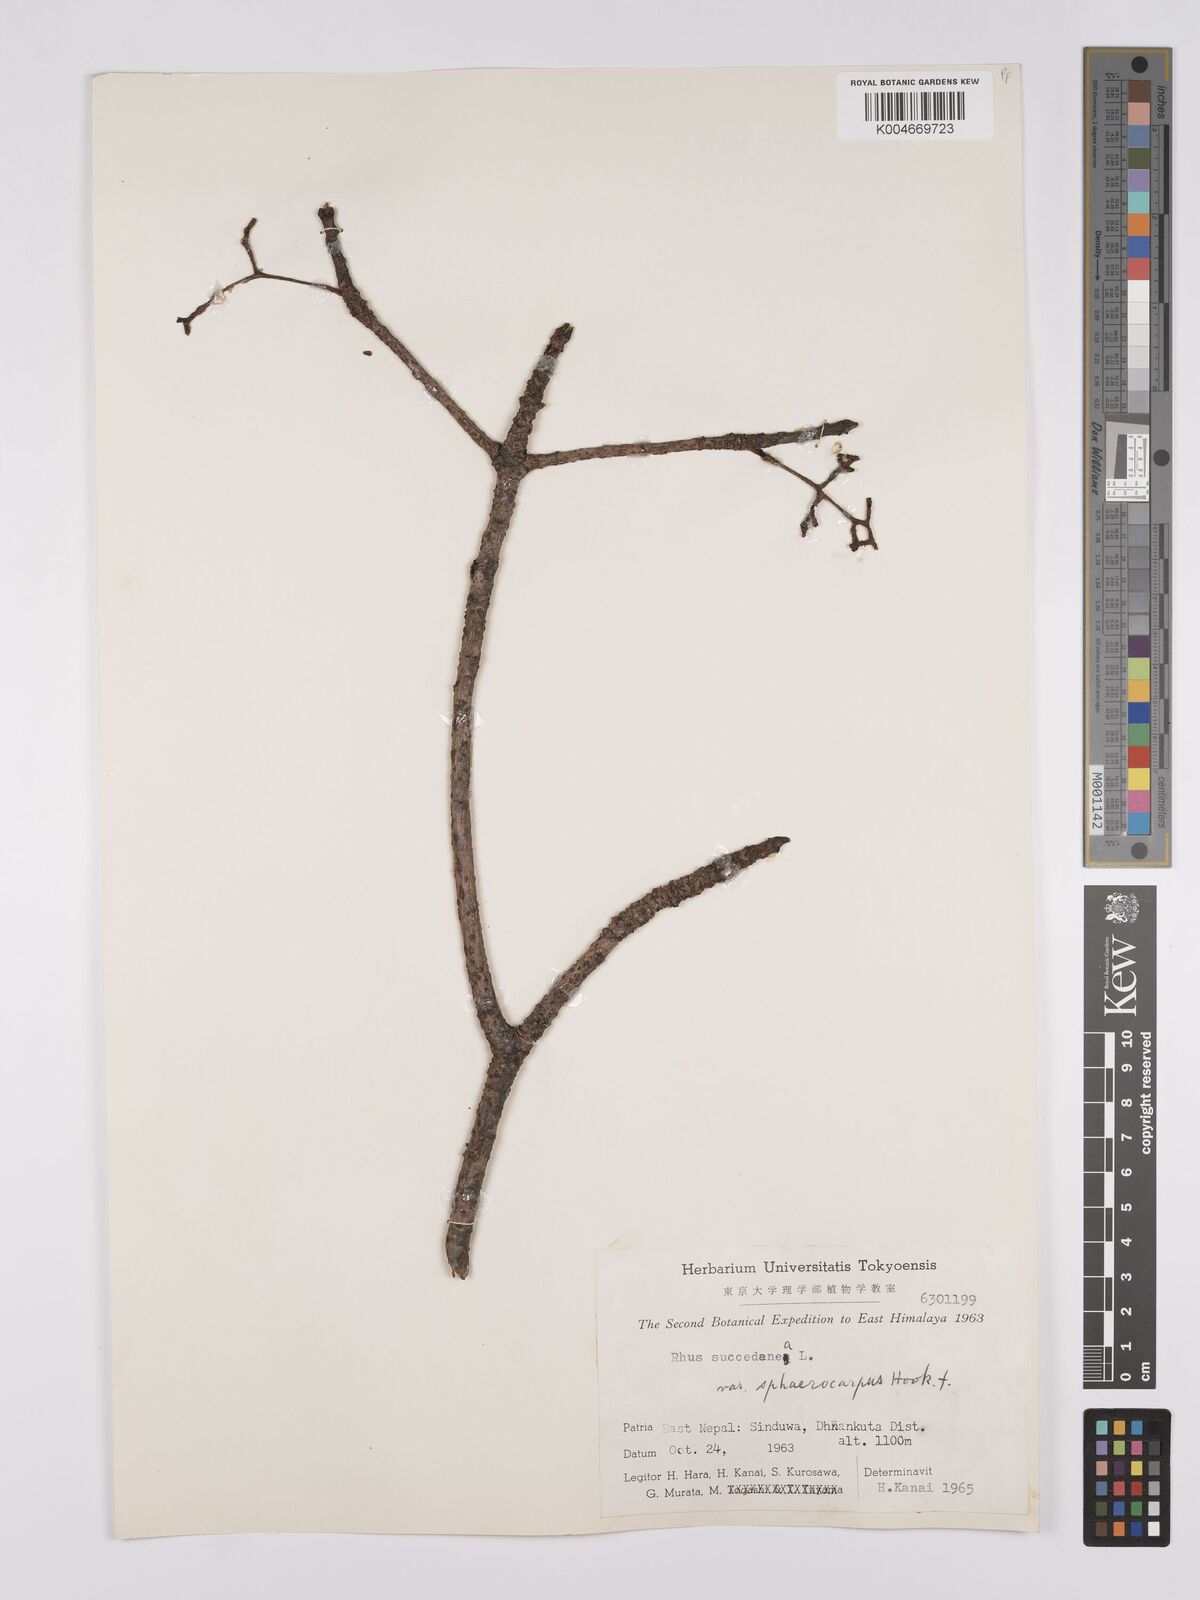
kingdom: Plantae
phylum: Tracheophyta
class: Magnoliopsida
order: Sapindales
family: Anacardiaceae
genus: Toxicodendron
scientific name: Toxicodendron succedaneum
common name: Wax tree
